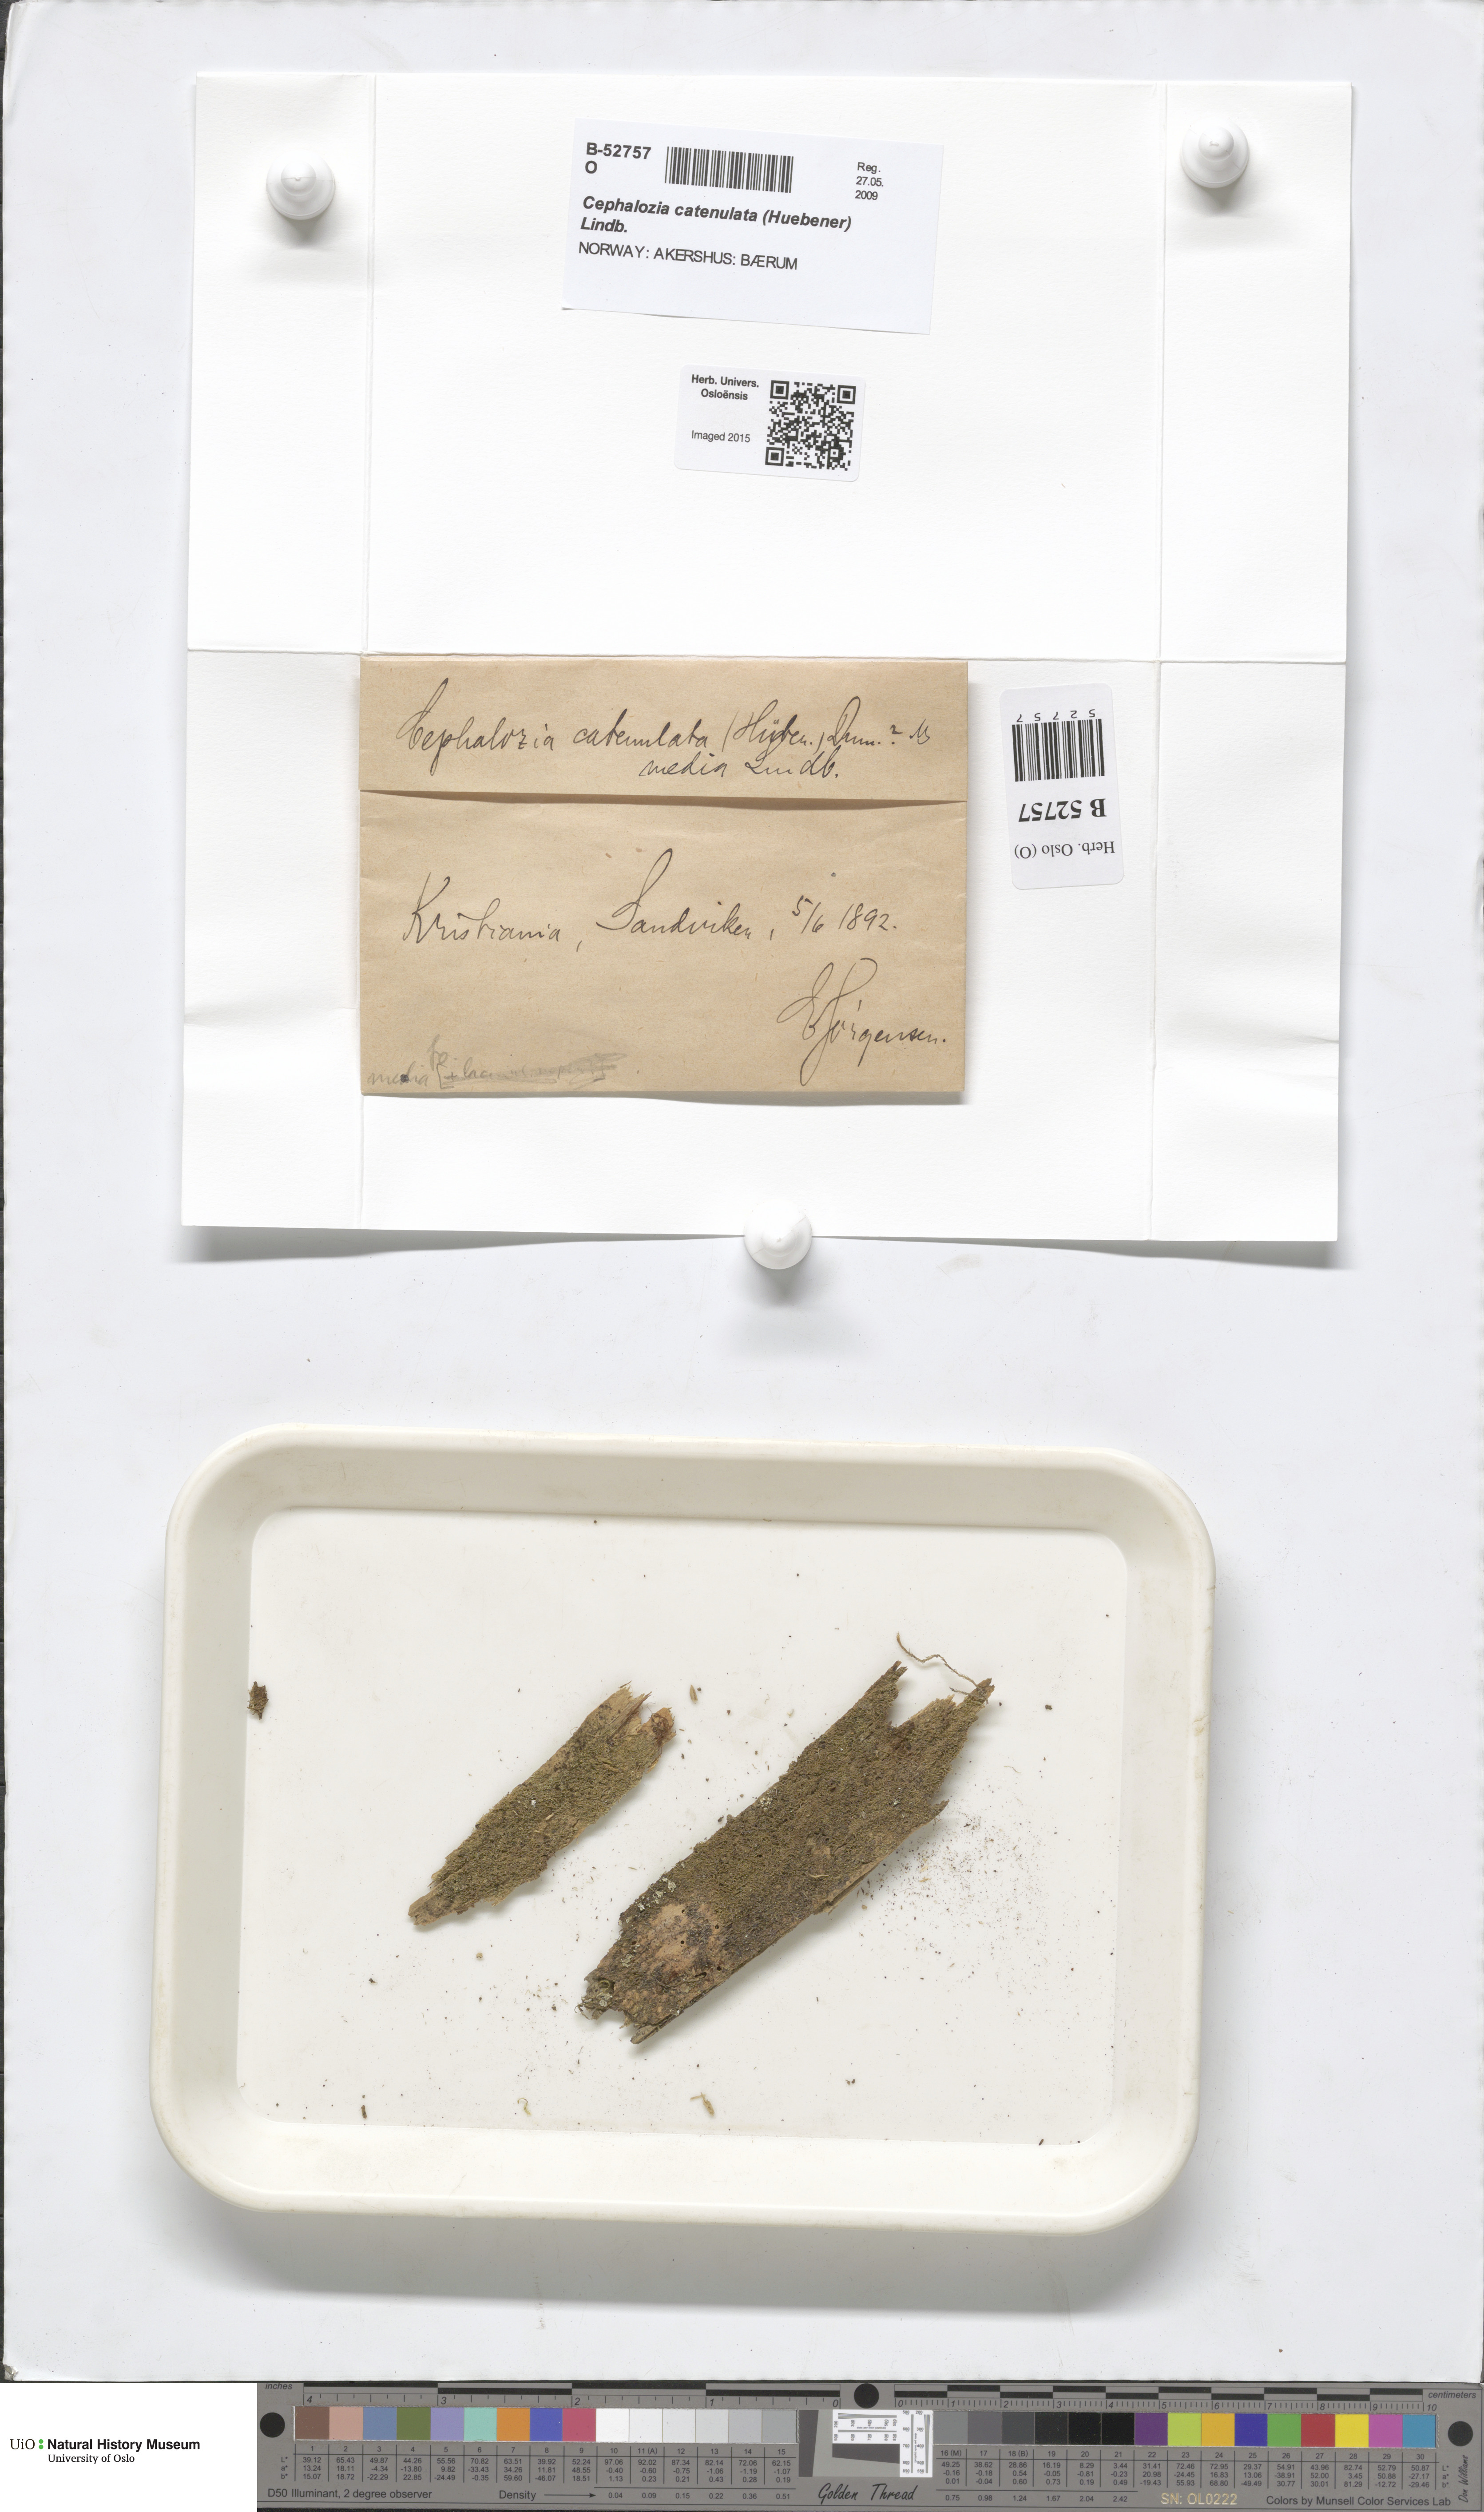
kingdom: Plantae
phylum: Marchantiophyta
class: Jungermanniopsida
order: Jungermanniales
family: Cephaloziaceae
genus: Fuscocephaloziopsis
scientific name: Fuscocephaloziopsis catenulata
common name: Chain pincerwort
